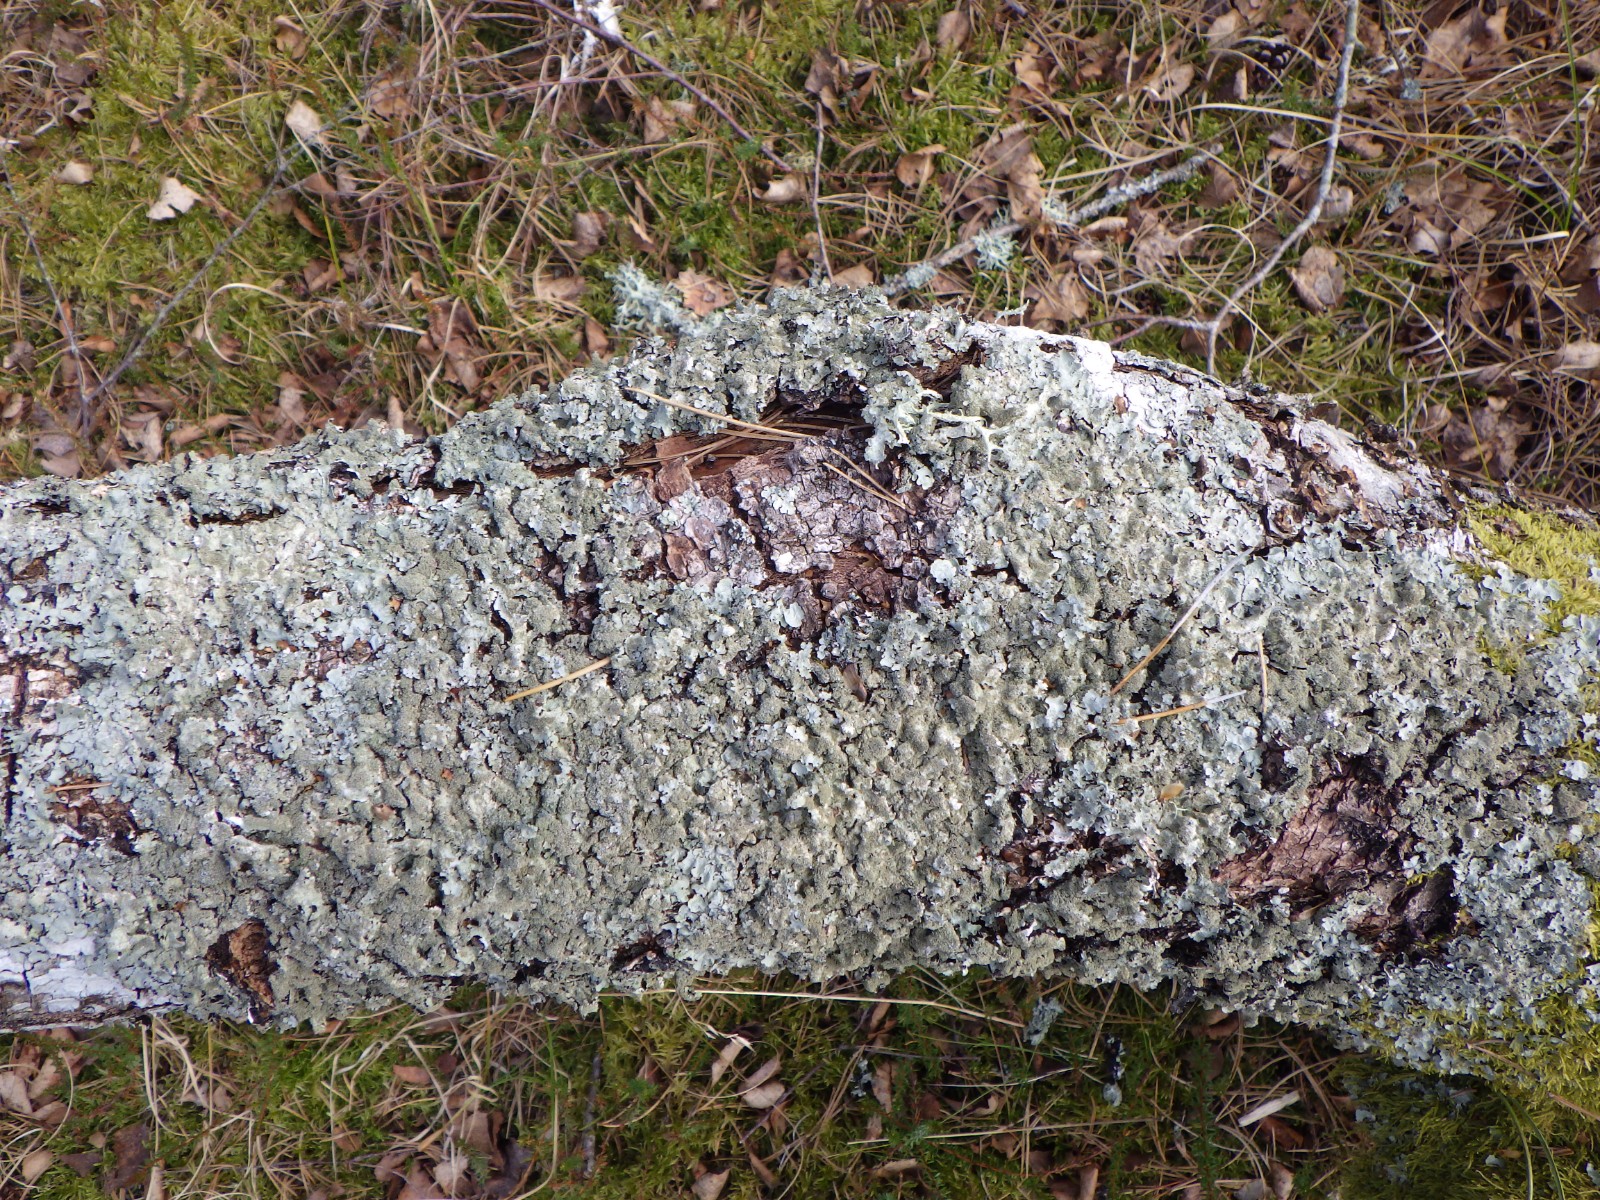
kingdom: Fungi
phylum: Ascomycota
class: Lecanoromycetes
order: Lecanorales
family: Parmeliaceae
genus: Parmelia
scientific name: Parmelia
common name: farve-skållav
